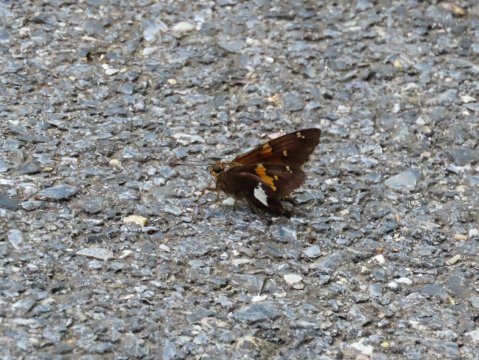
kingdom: Animalia
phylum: Arthropoda
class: Insecta
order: Lepidoptera
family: Hesperiidae
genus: Epargyreus
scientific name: Epargyreus clarus
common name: Silver-spotted Skipper
